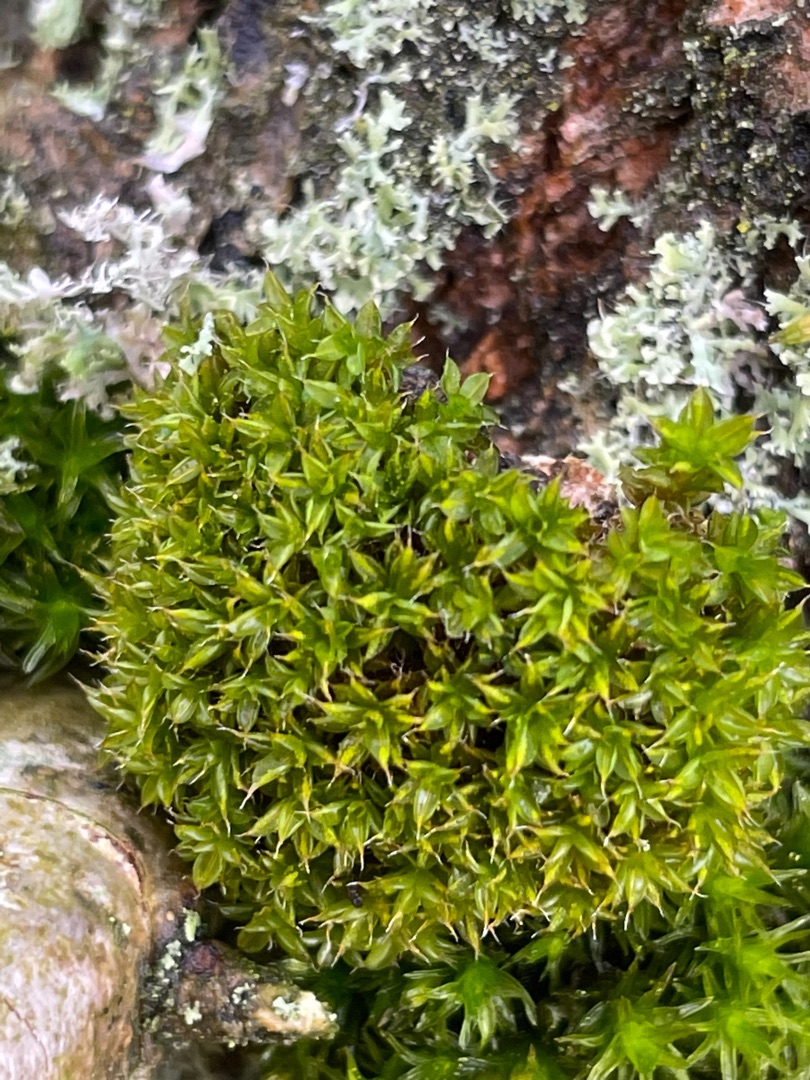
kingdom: Plantae
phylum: Bryophyta
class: Bryopsida
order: Pottiales
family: Pottiaceae
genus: Syntrichia
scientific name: Syntrichia papillosa
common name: Bark-hårstjerne
